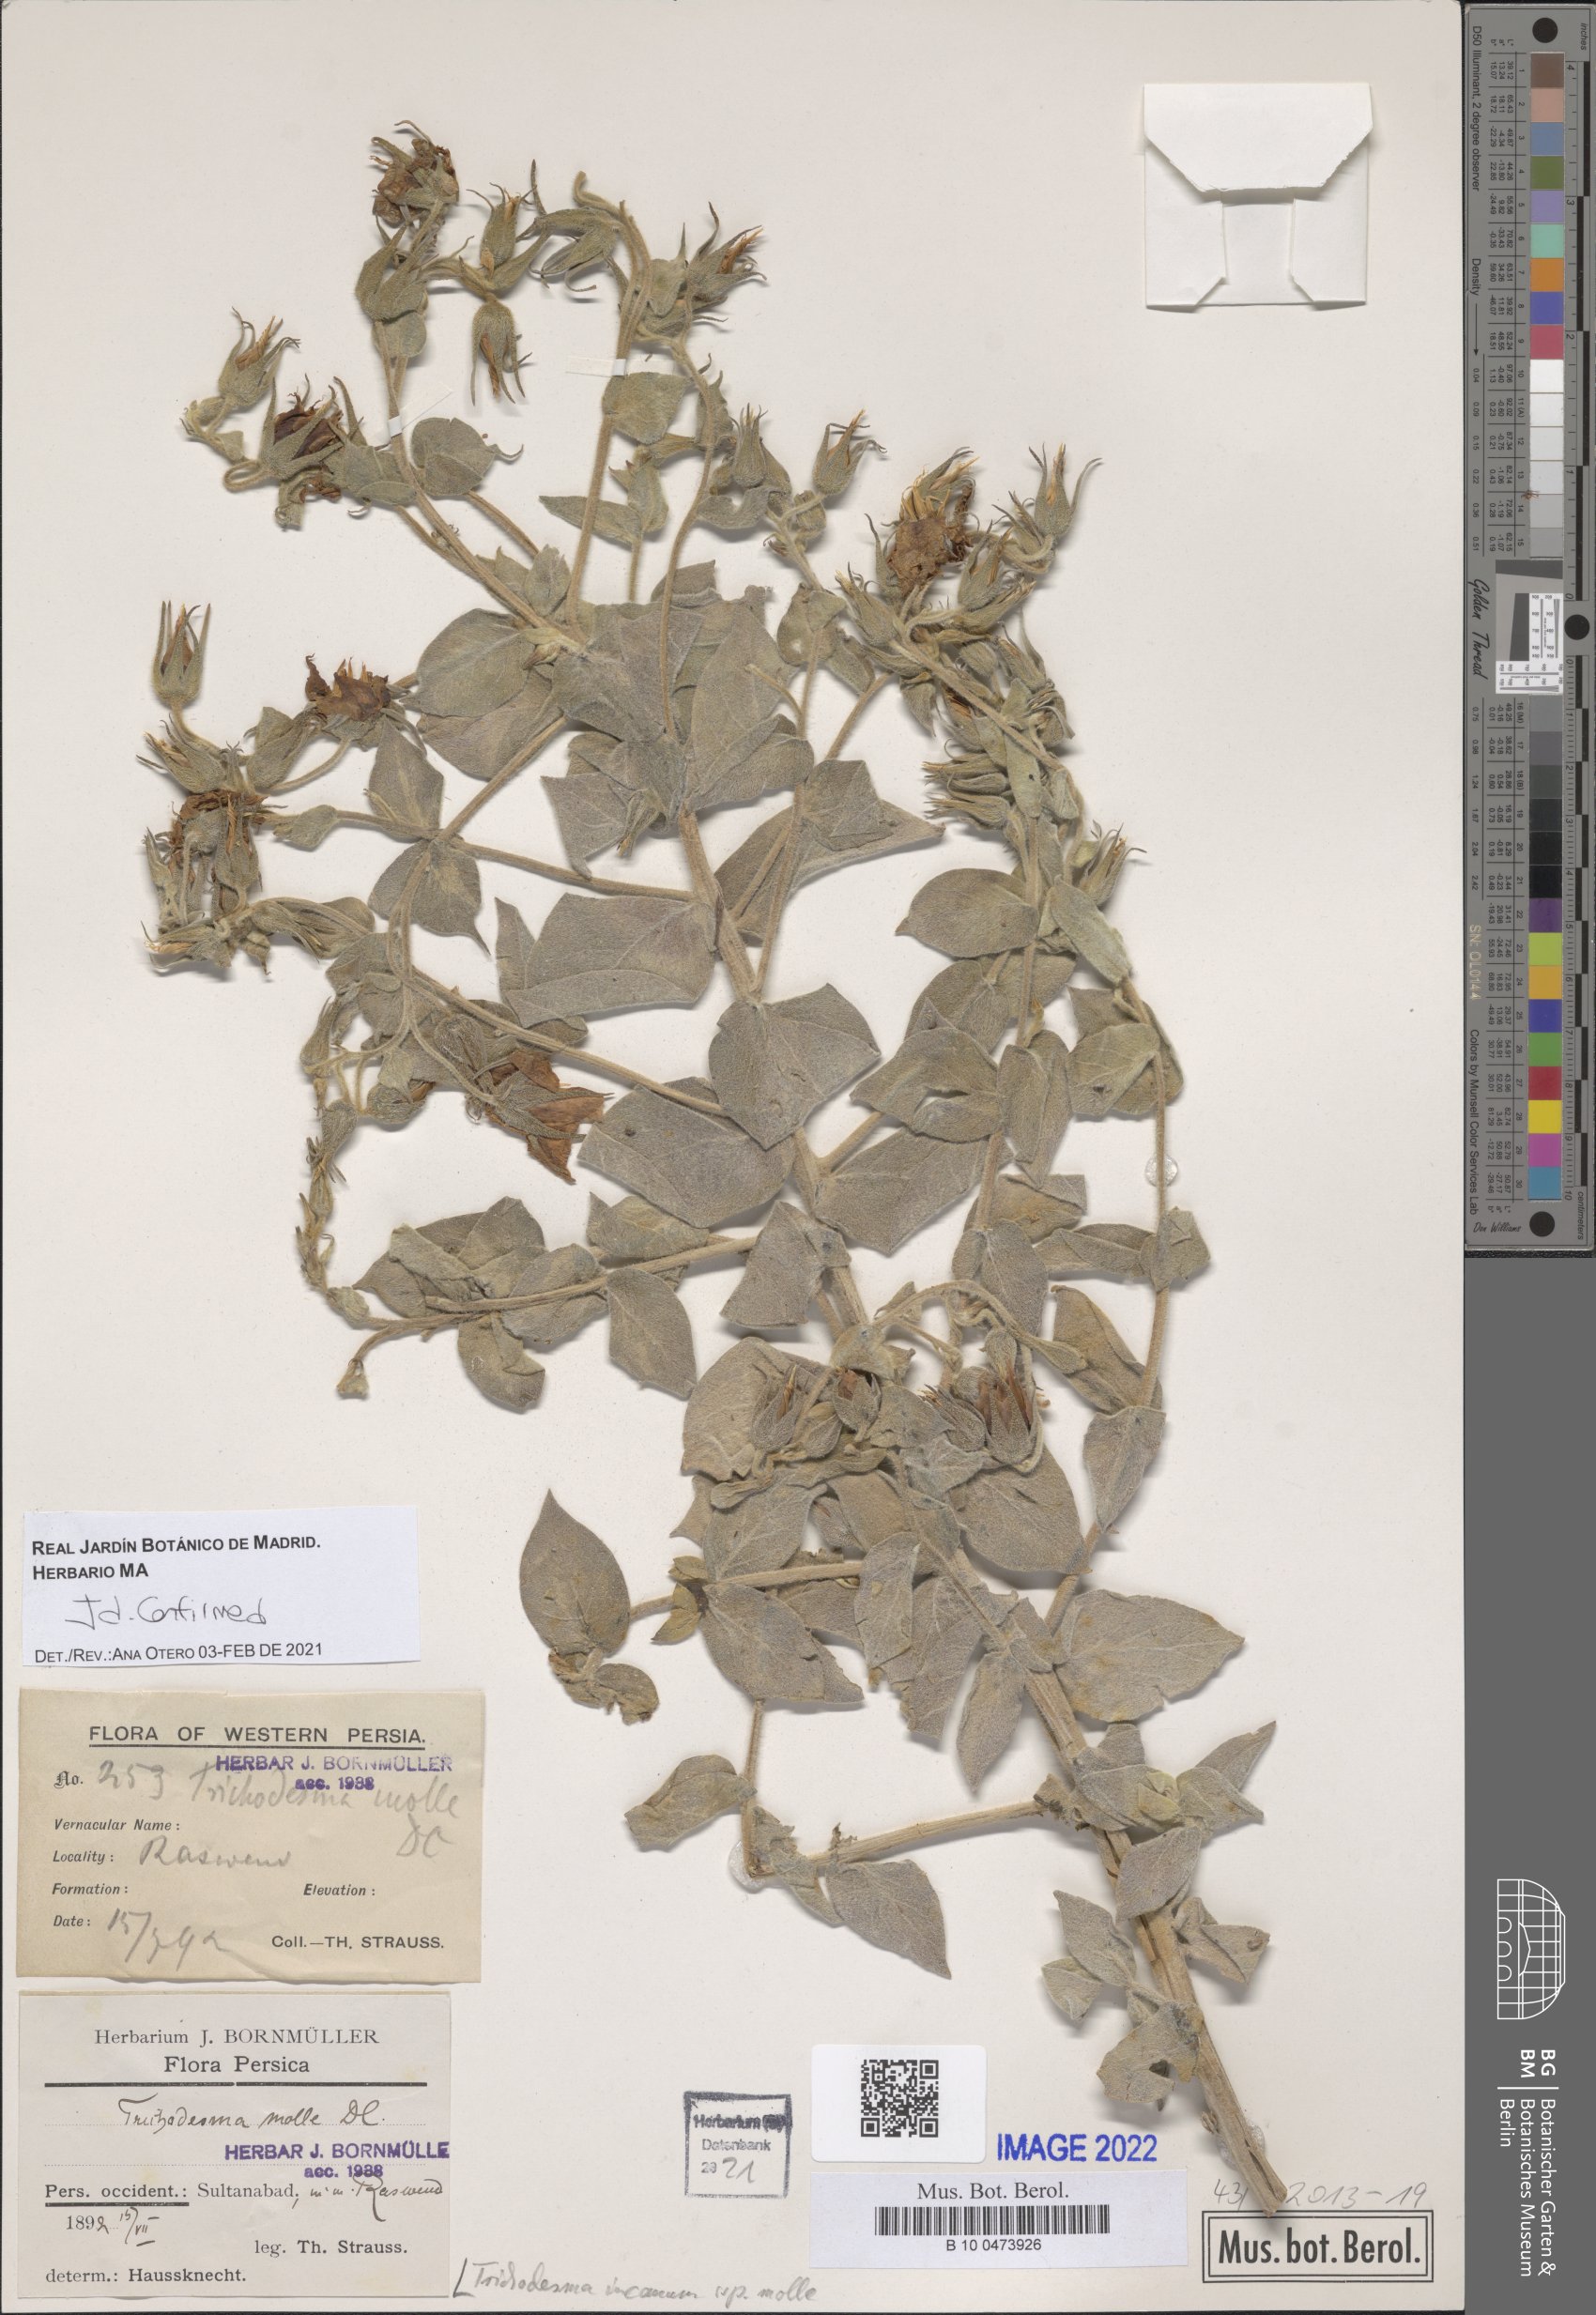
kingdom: Plantae
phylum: Tracheophyta
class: Magnoliopsida
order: Boraginales
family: Boraginaceae
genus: Trichodesma
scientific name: Trichodesma incanum
